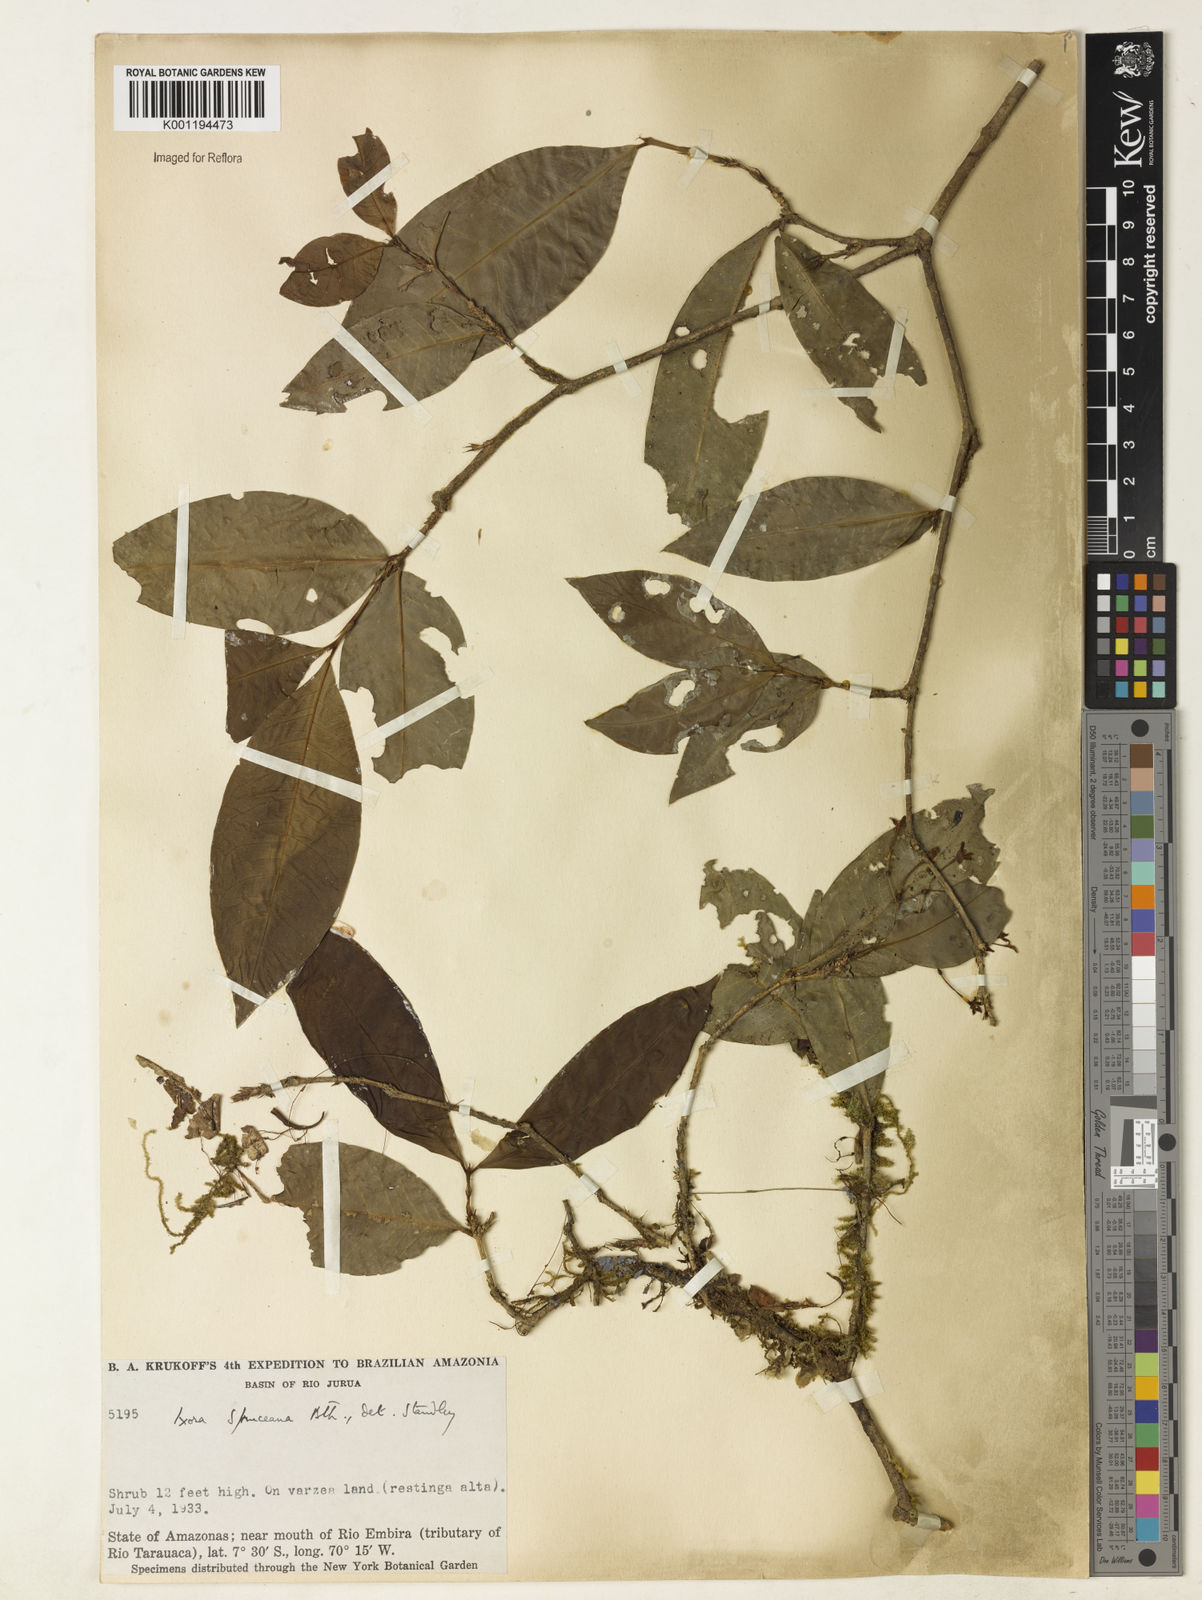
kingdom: Plantae
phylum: Tracheophyta
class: Magnoliopsida
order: Gentianales
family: Rubiaceae
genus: Ixora
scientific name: Ixora
